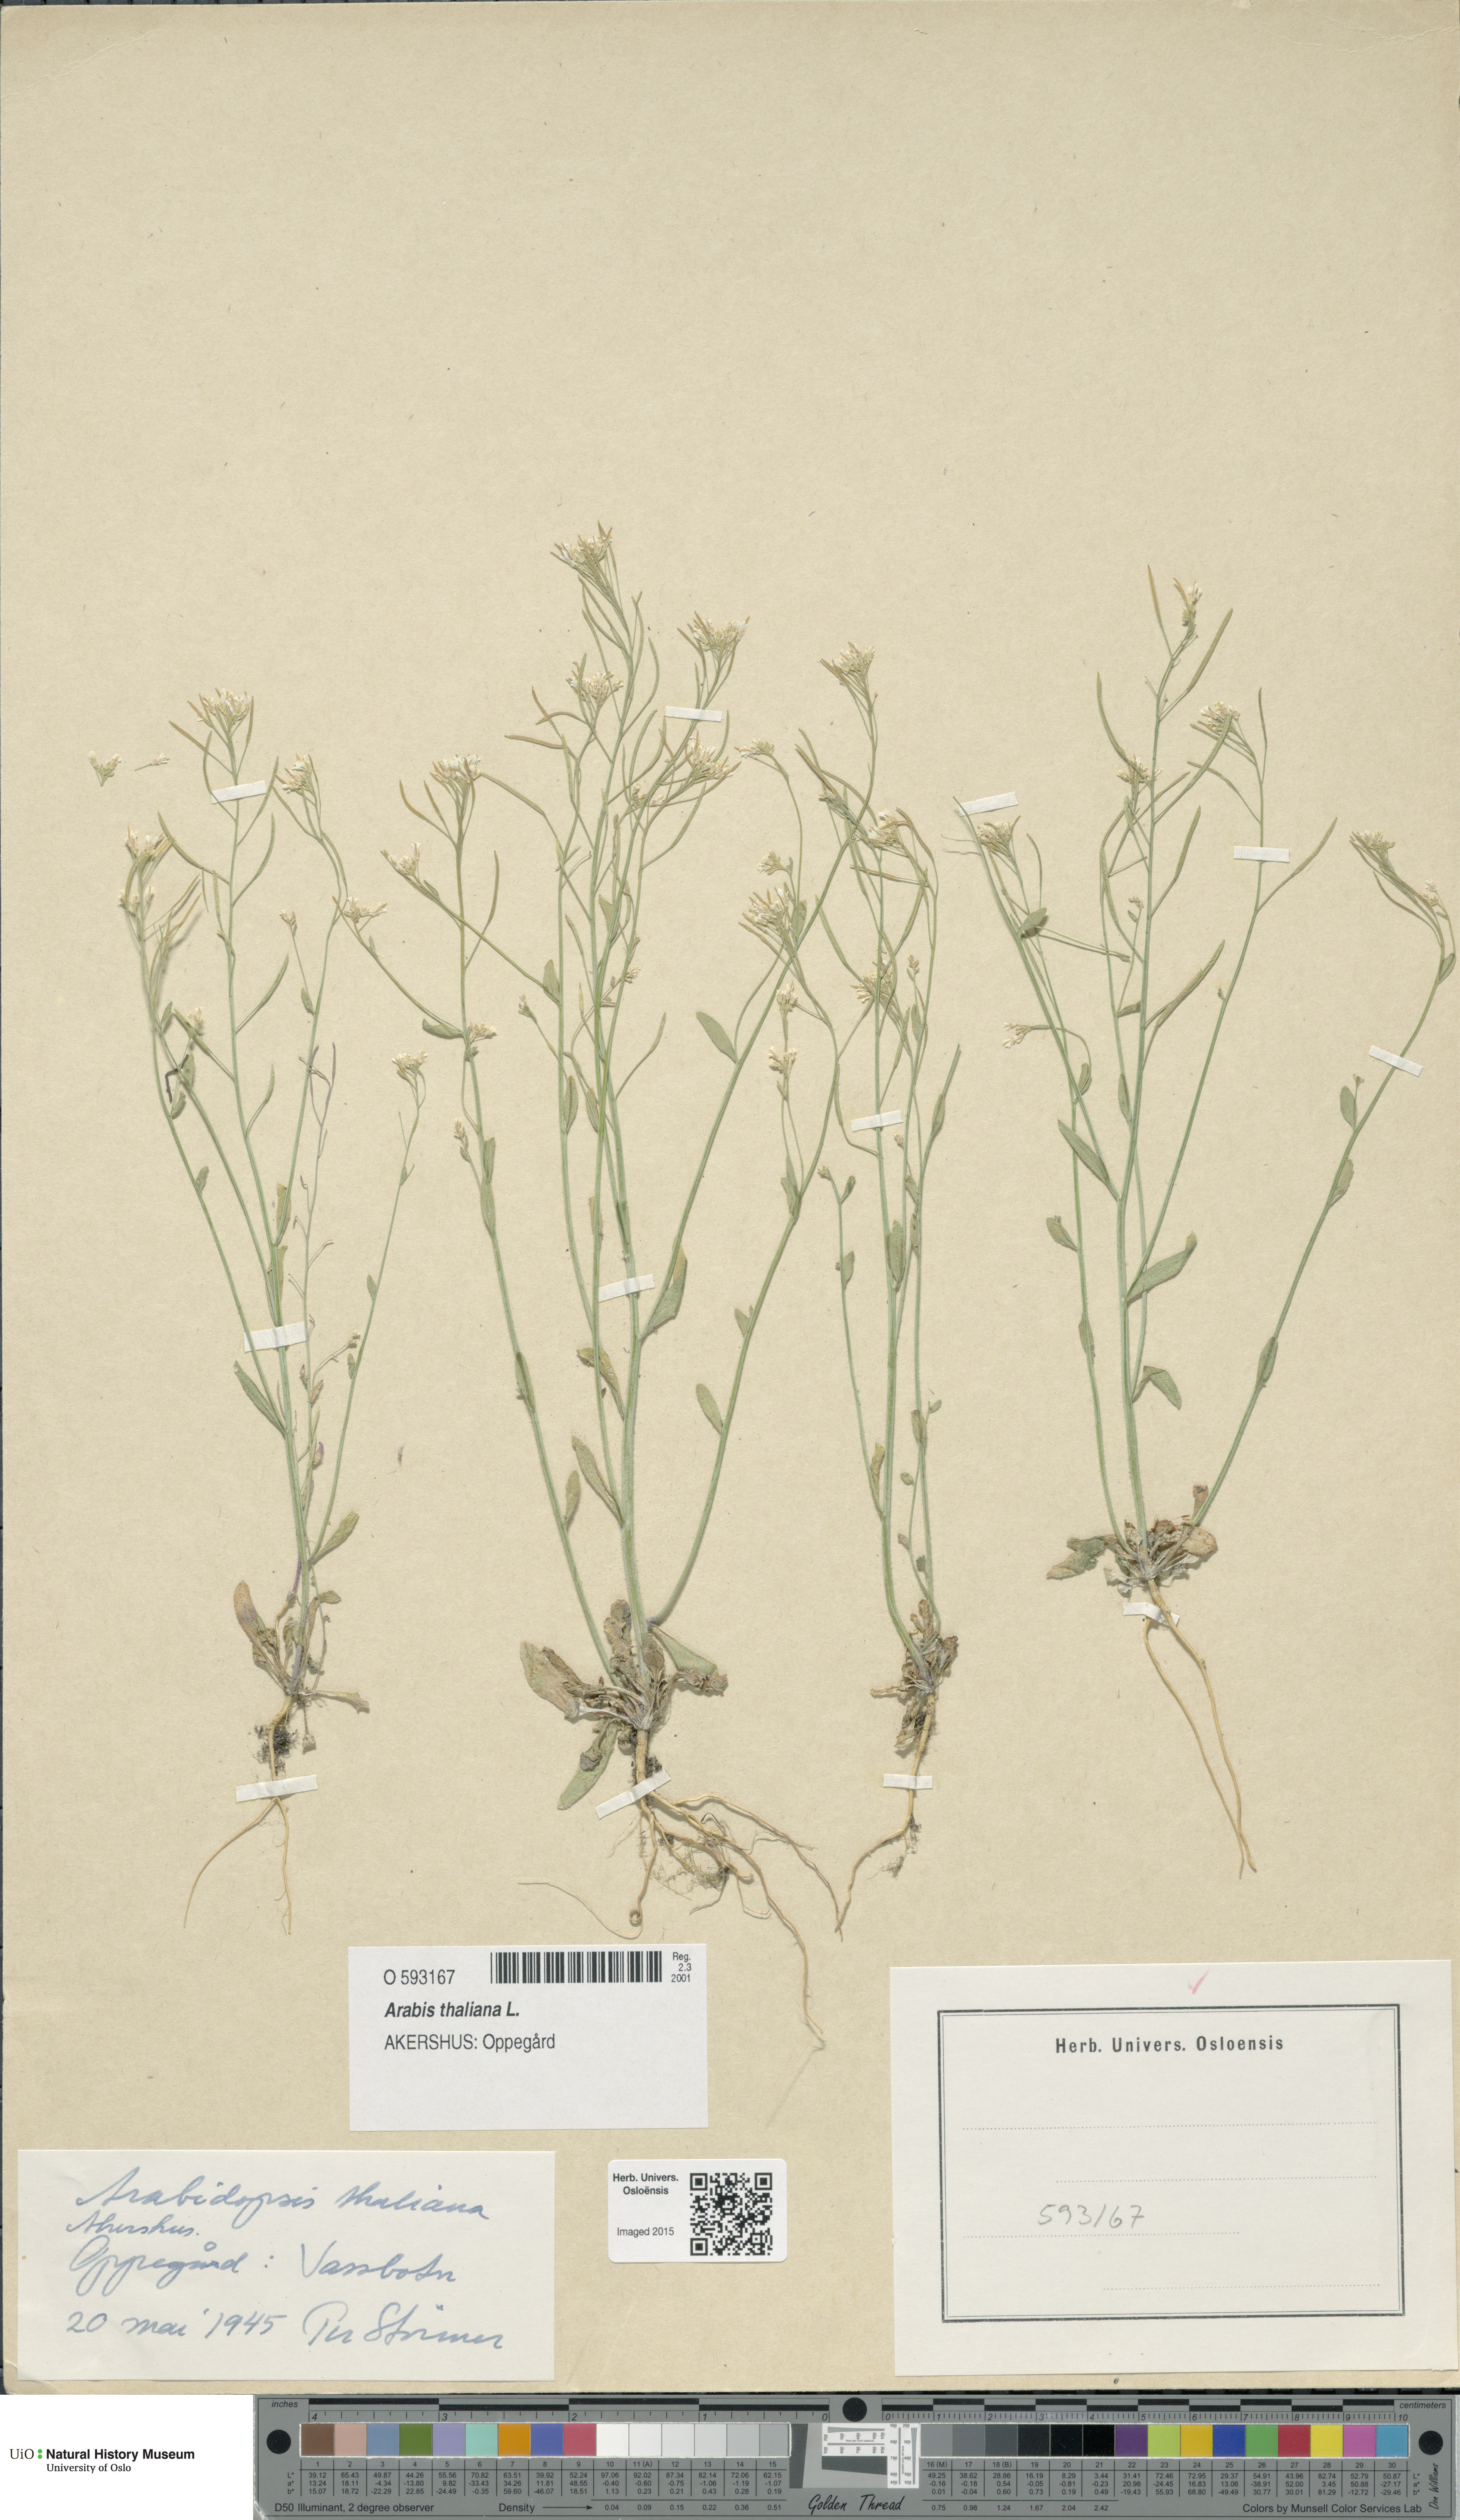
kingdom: Plantae
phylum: Tracheophyta
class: Magnoliopsida
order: Brassicales
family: Brassicaceae
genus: Arabidopsis
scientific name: Arabidopsis thaliana
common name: Thale cress
